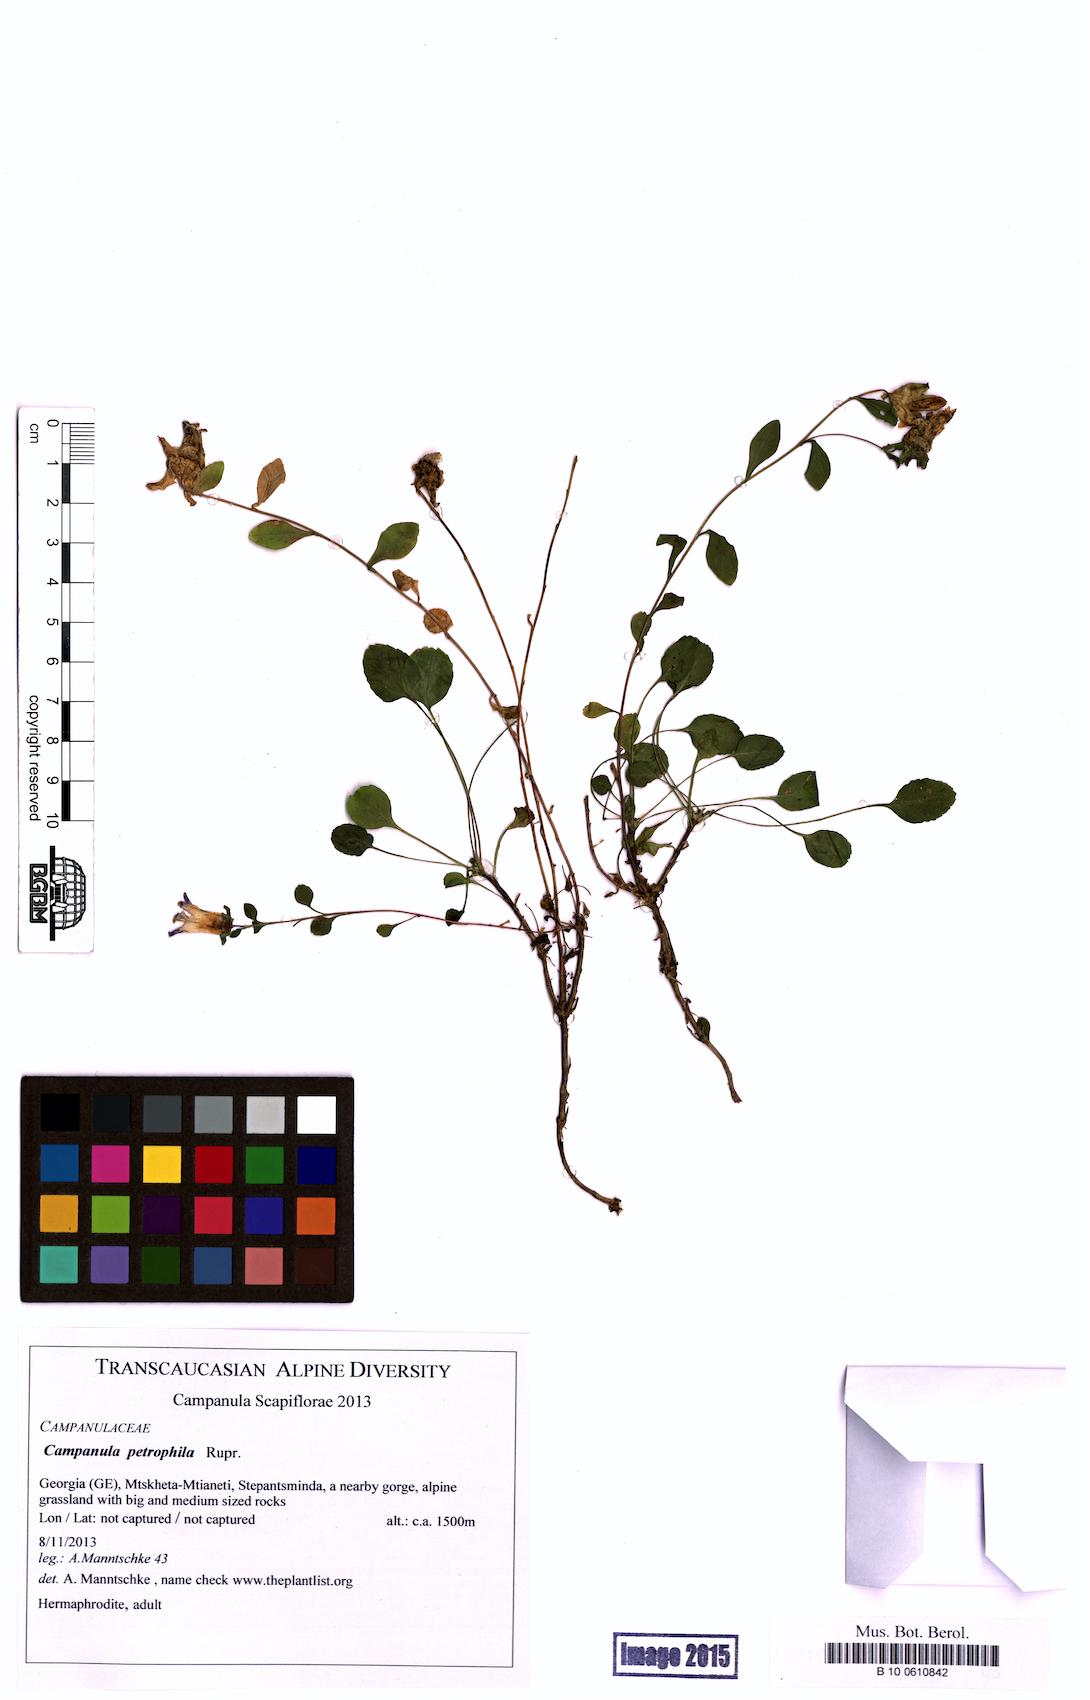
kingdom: Plantae
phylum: Tracheophyta
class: Magnoliopsida
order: Asterales
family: Campanulaceae
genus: Campanula
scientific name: Campanula petrophila
